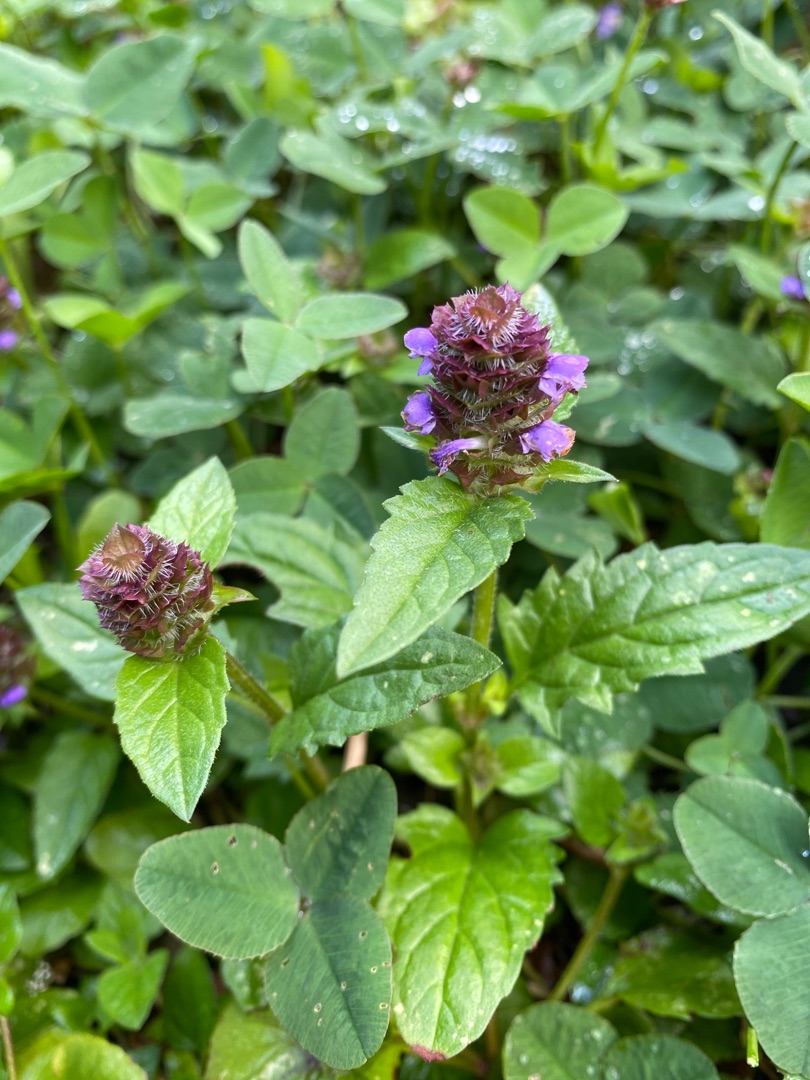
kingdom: Plantae
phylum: Tracheophyta
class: Magnoliopsida
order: Lamiales
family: Lamiaceae
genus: Prunella
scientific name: Prunella vulgaris
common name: Almindelig brunelle
